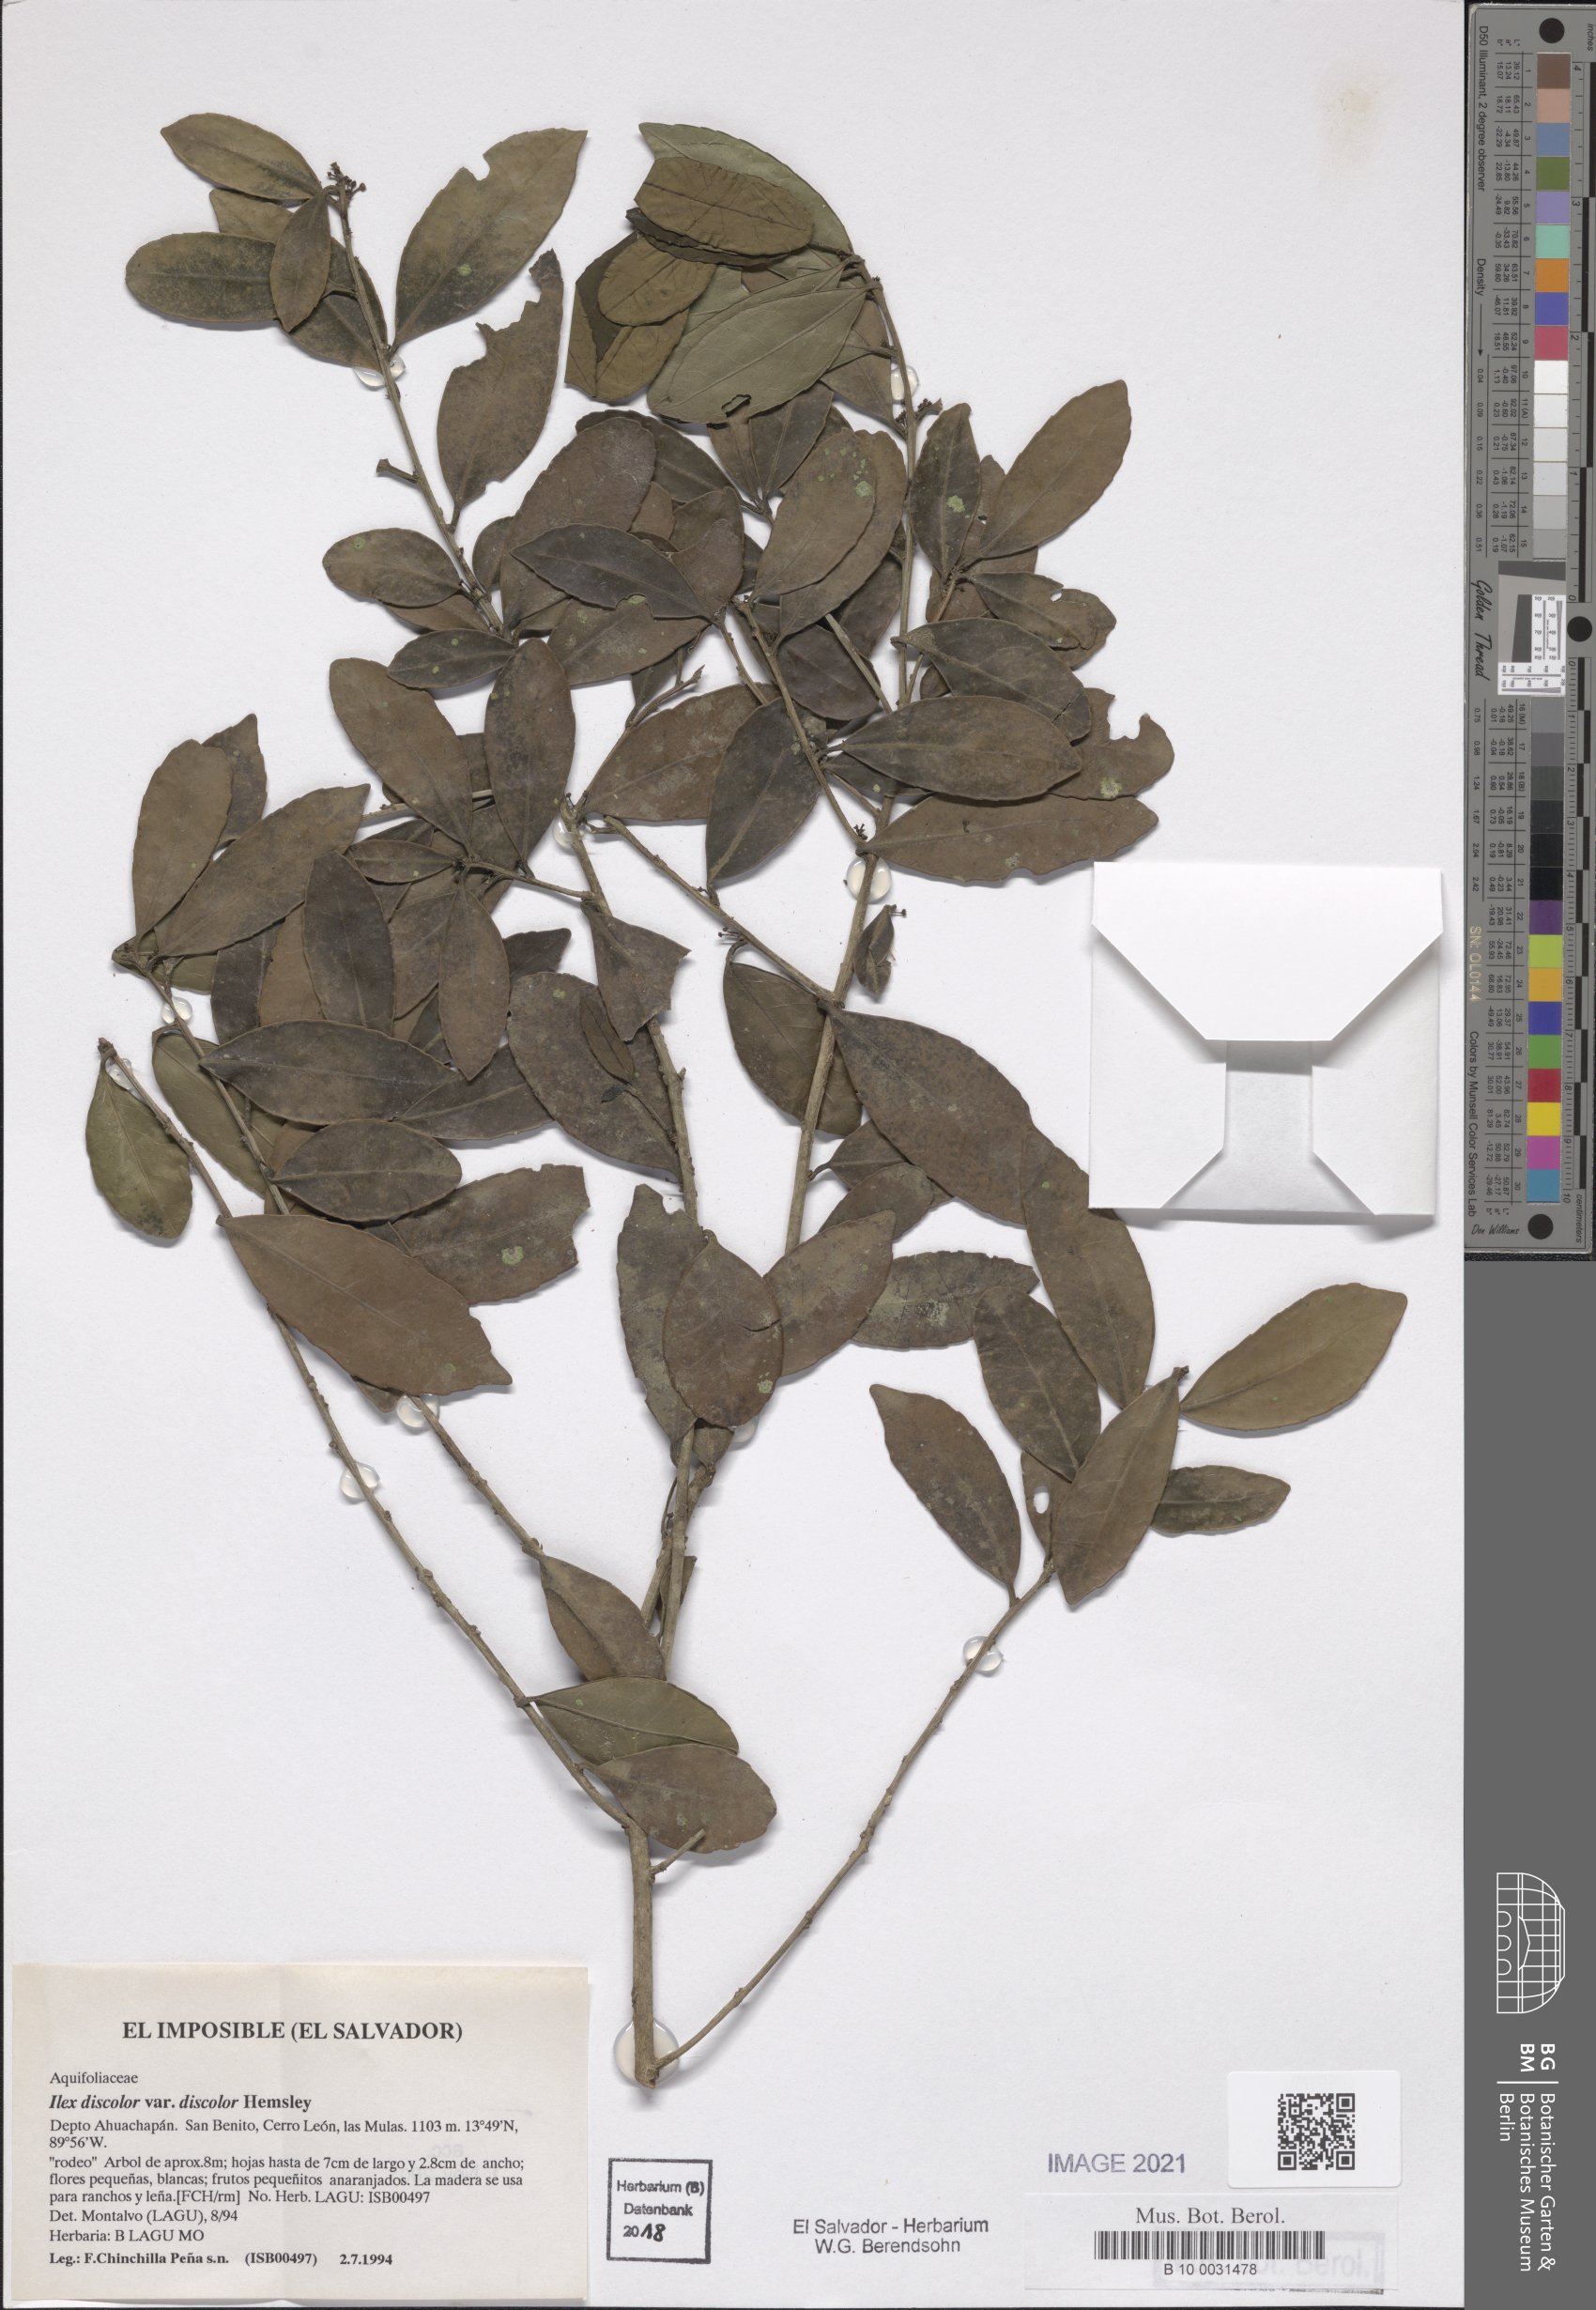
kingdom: Plantae
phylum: Tracheophyta
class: Magnoliopsida
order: Aquifoliales
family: Aquifoliaceae
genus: Ilex
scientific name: Ilex discolor
